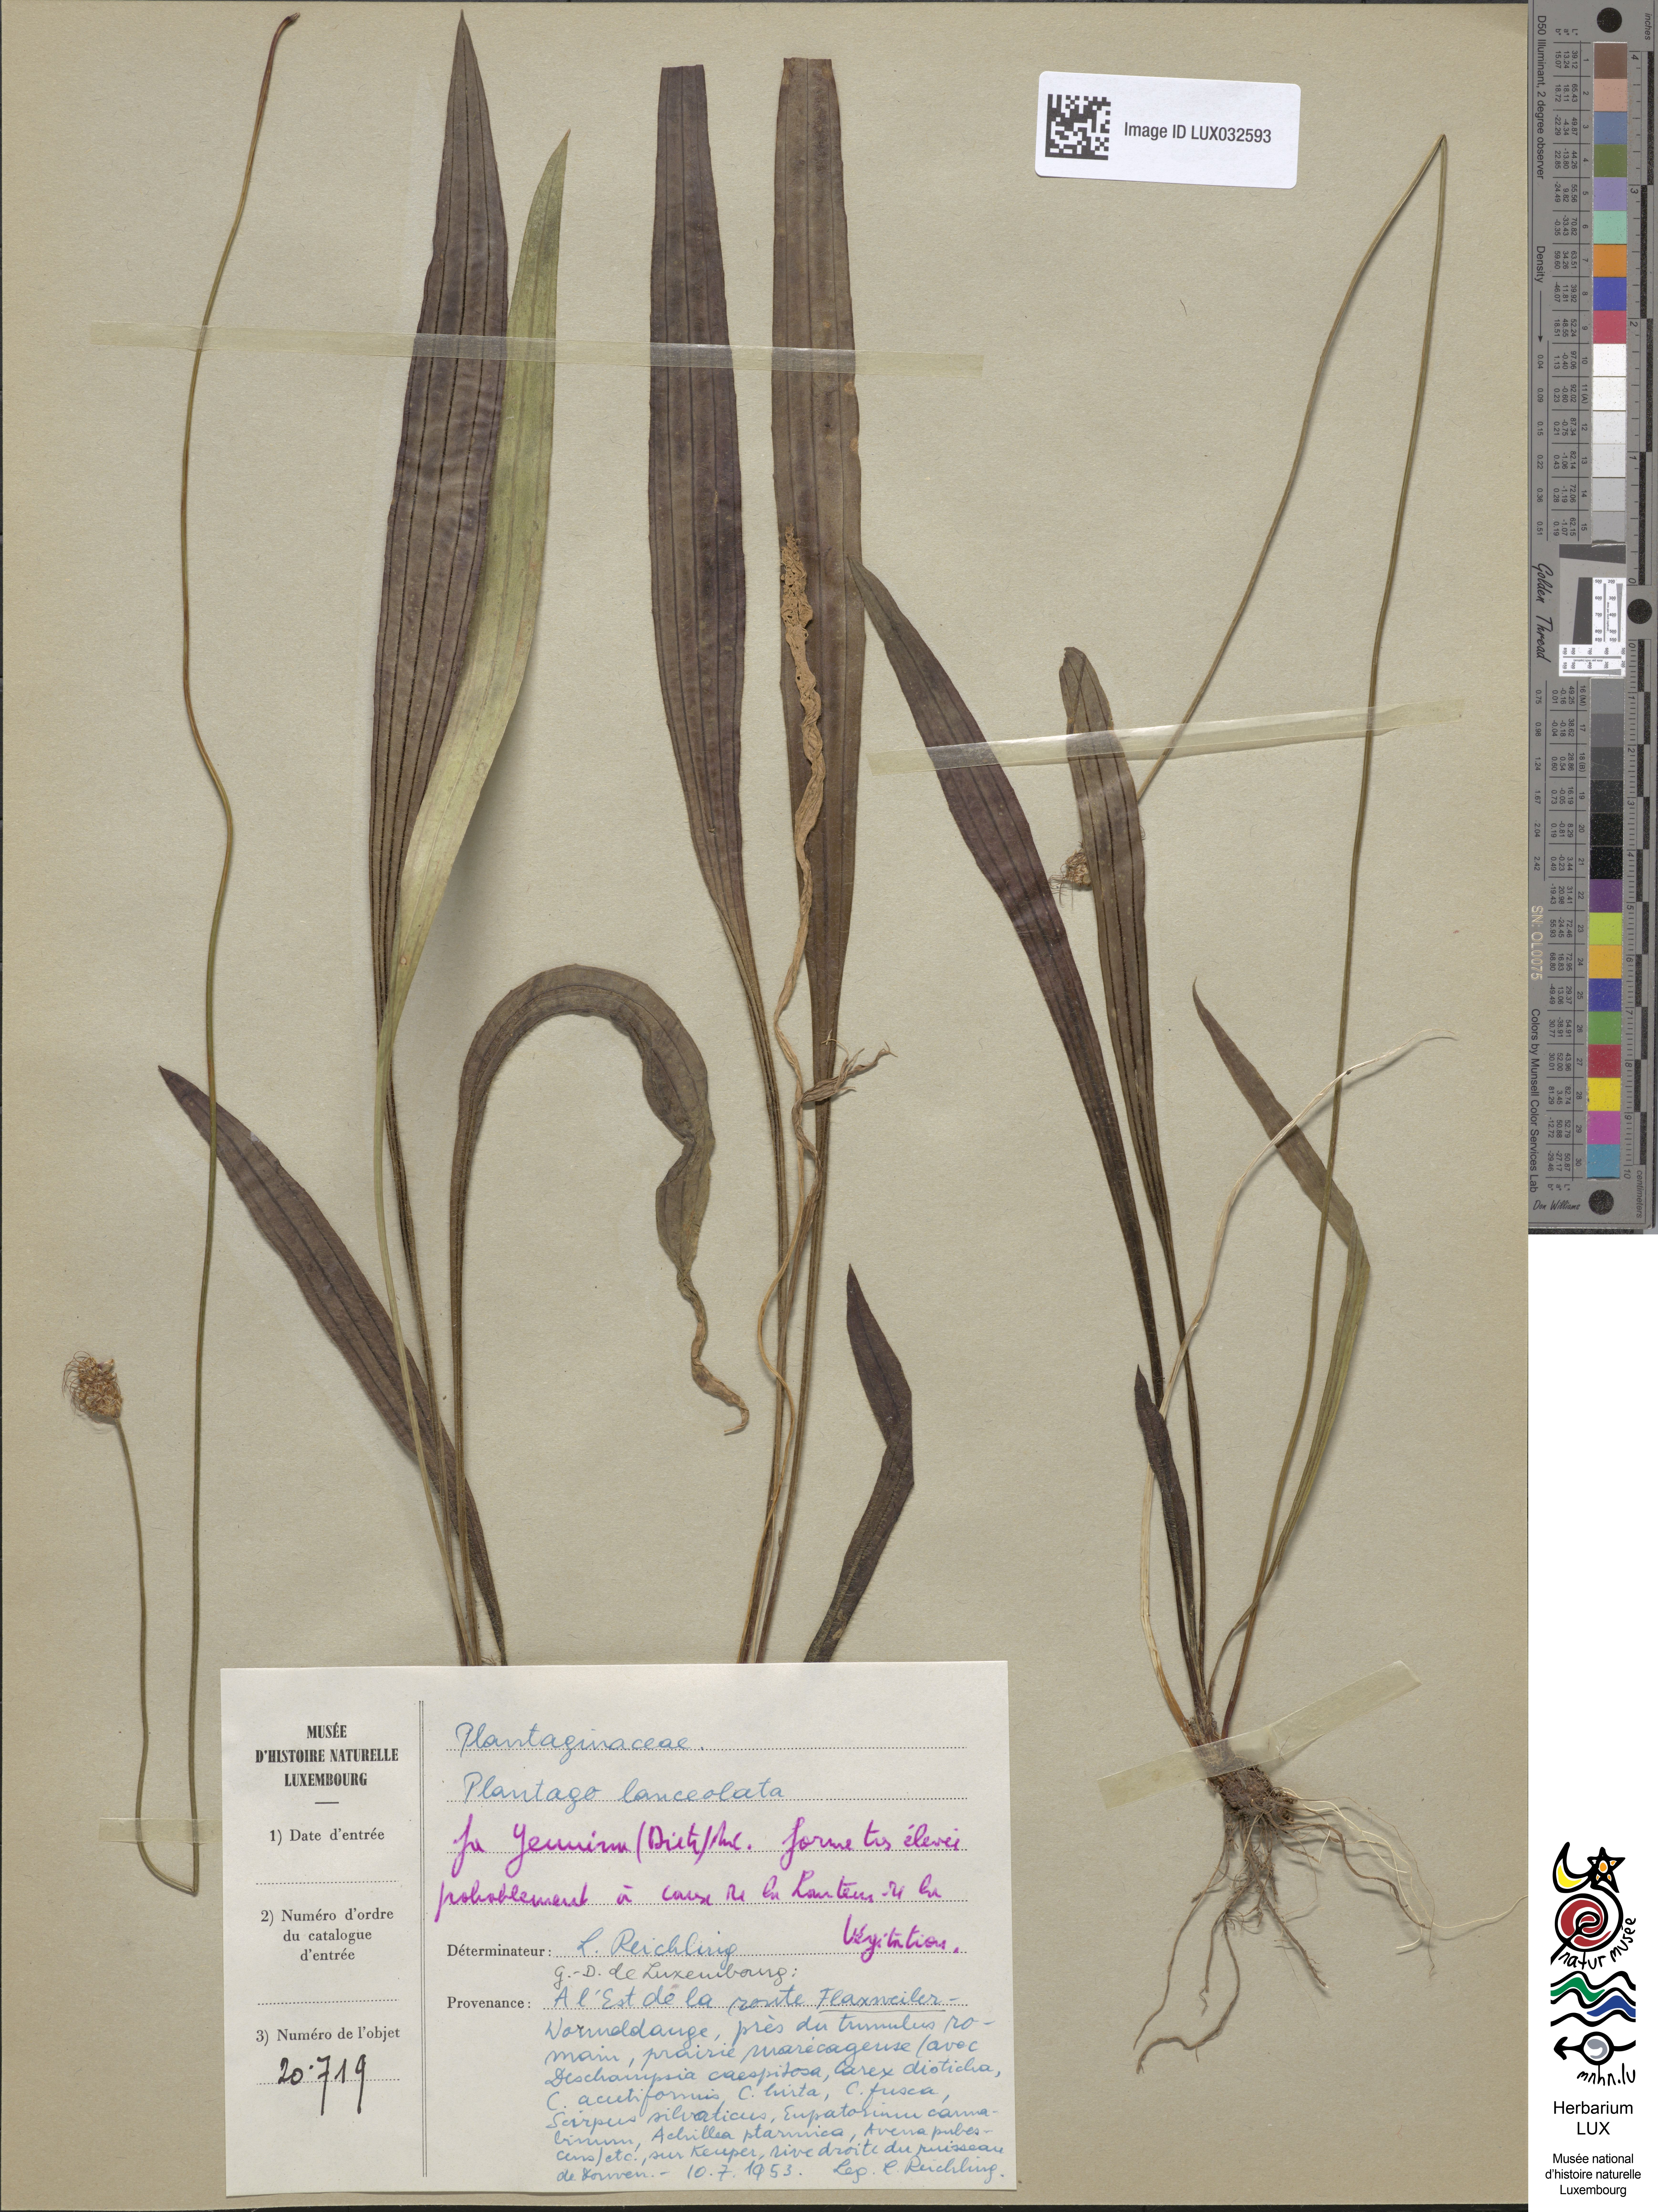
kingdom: Plantae
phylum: Tracheophyta
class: Magnoliopsida
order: Lamiales
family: Plantaginaceae
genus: Plantago
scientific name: Plantago lanceolata
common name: Ribwort plantain
